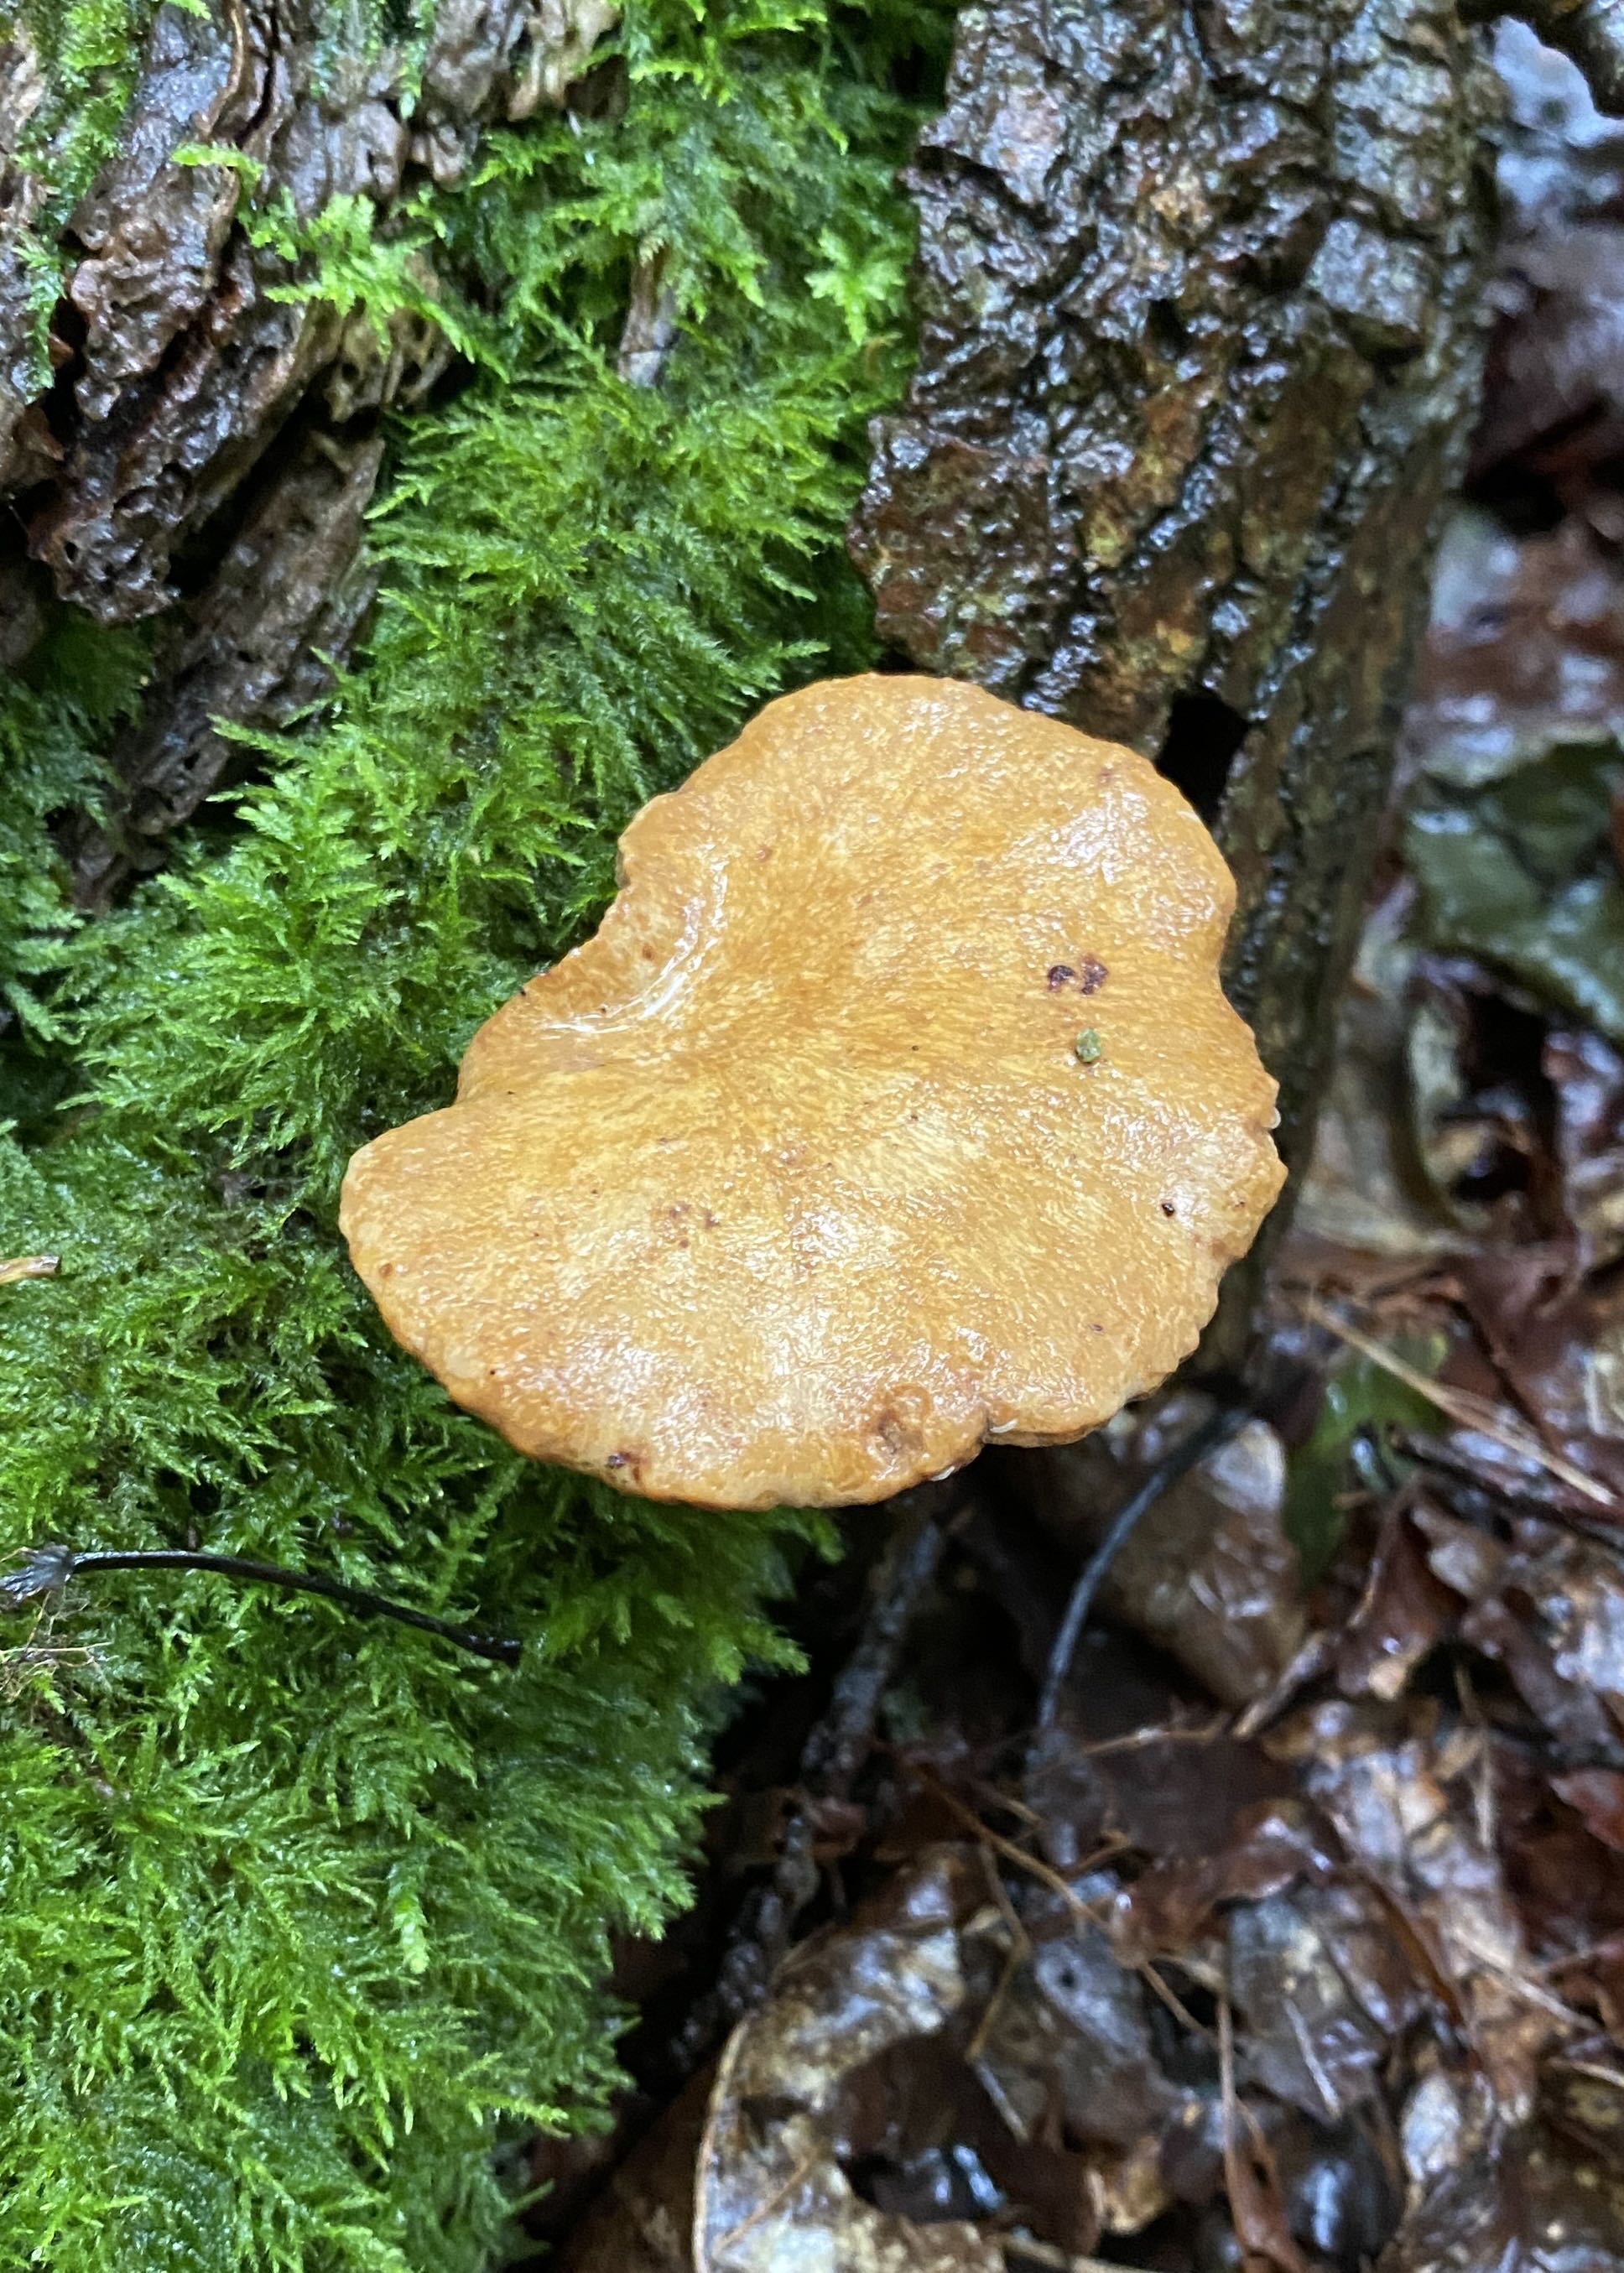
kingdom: Fungi
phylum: Basidiomycota
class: Agaricomycetes
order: Polyporales
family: Polyporaceae
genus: Cerioporus
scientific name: Cerioporus varius
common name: foranderlig stilkporesvamp
